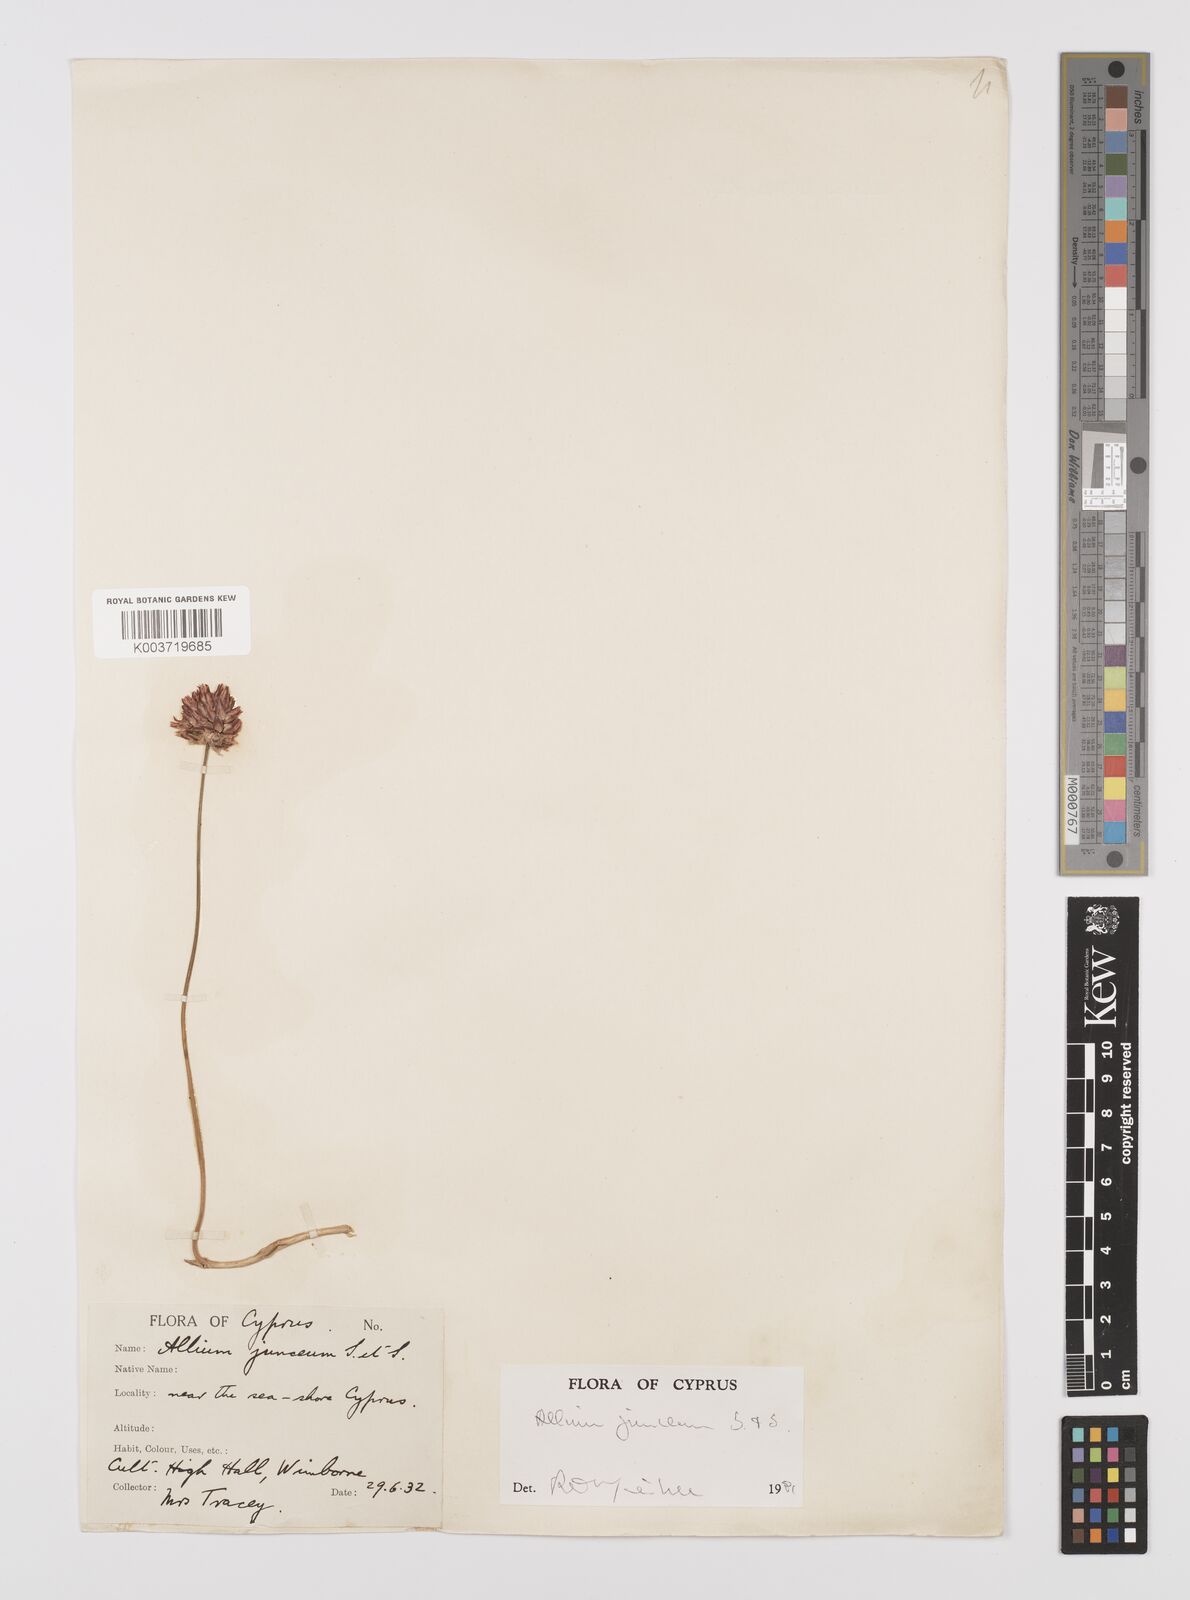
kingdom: Plantae
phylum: Tracheophyta
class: Liliopsida
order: Asparagales
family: Amaryllidaceae
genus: Allium
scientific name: Allium junceum
